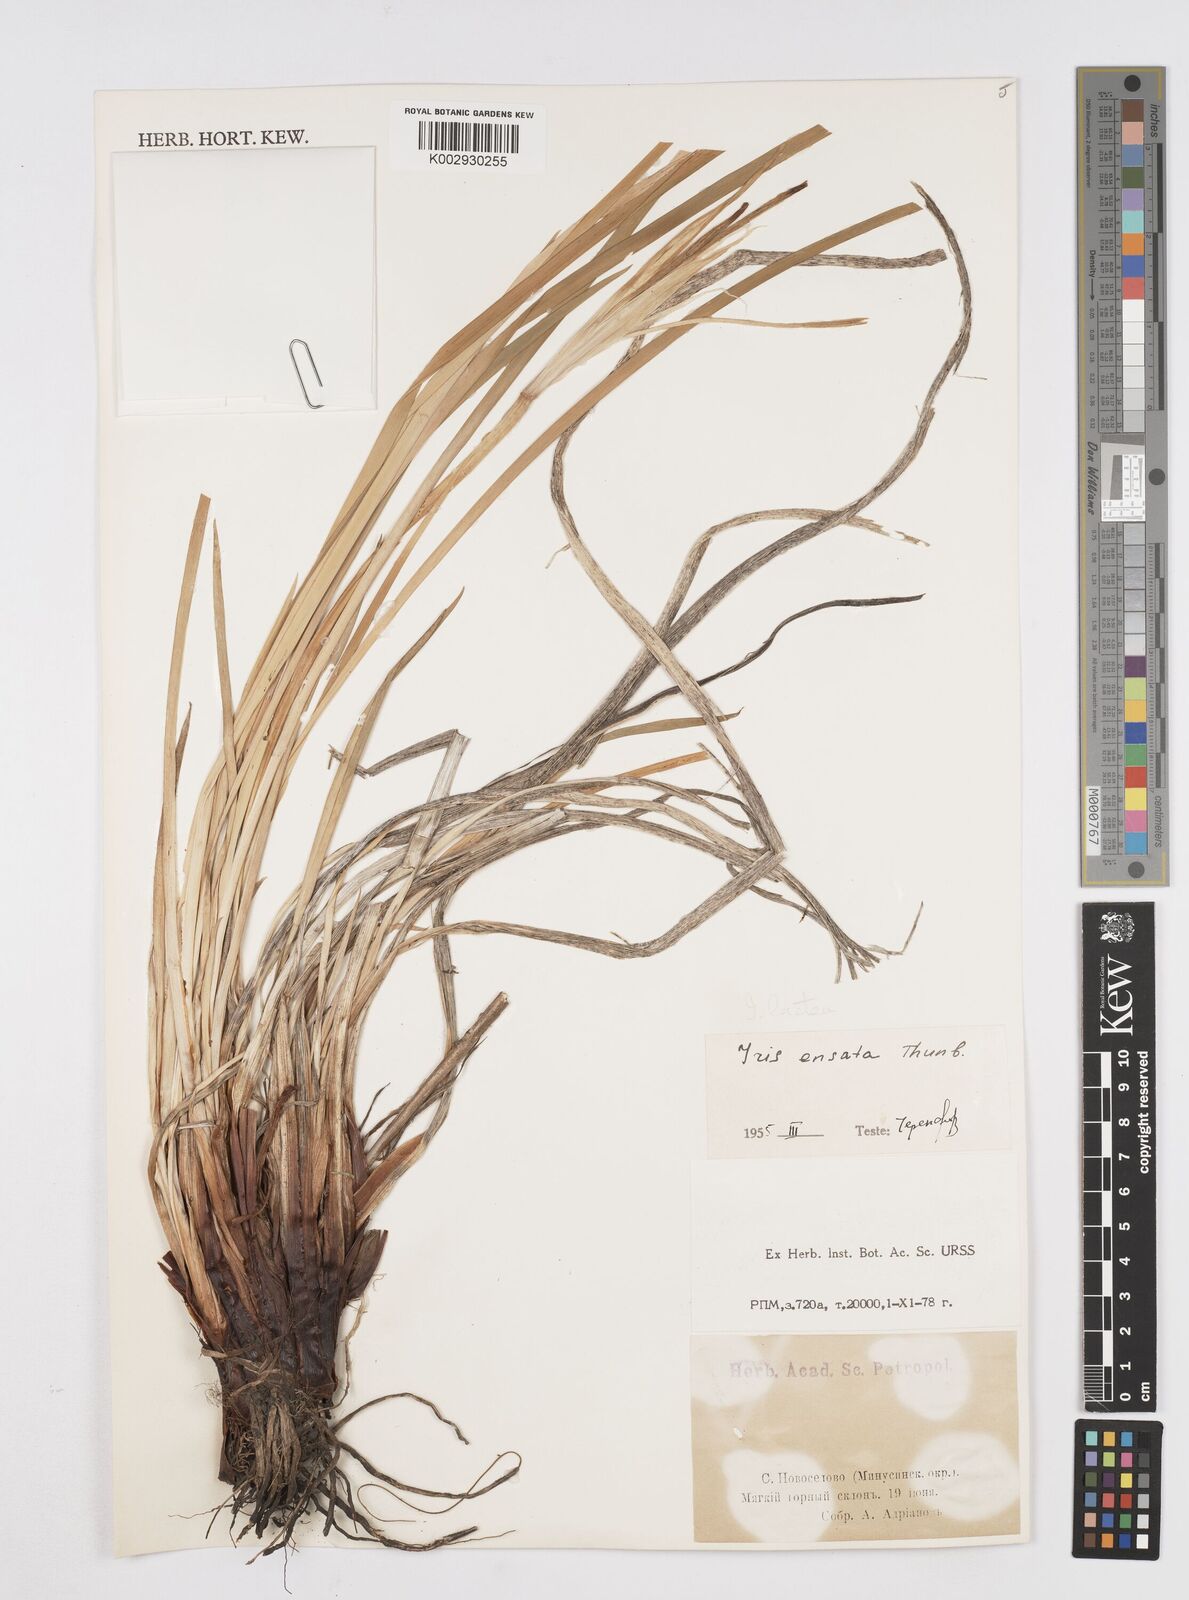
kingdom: Plantae
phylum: Tracheophyta
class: Liliopsida
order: Asparagales
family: Iridaceae
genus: Iris
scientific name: Iris lactea
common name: White-flower chinese iris
